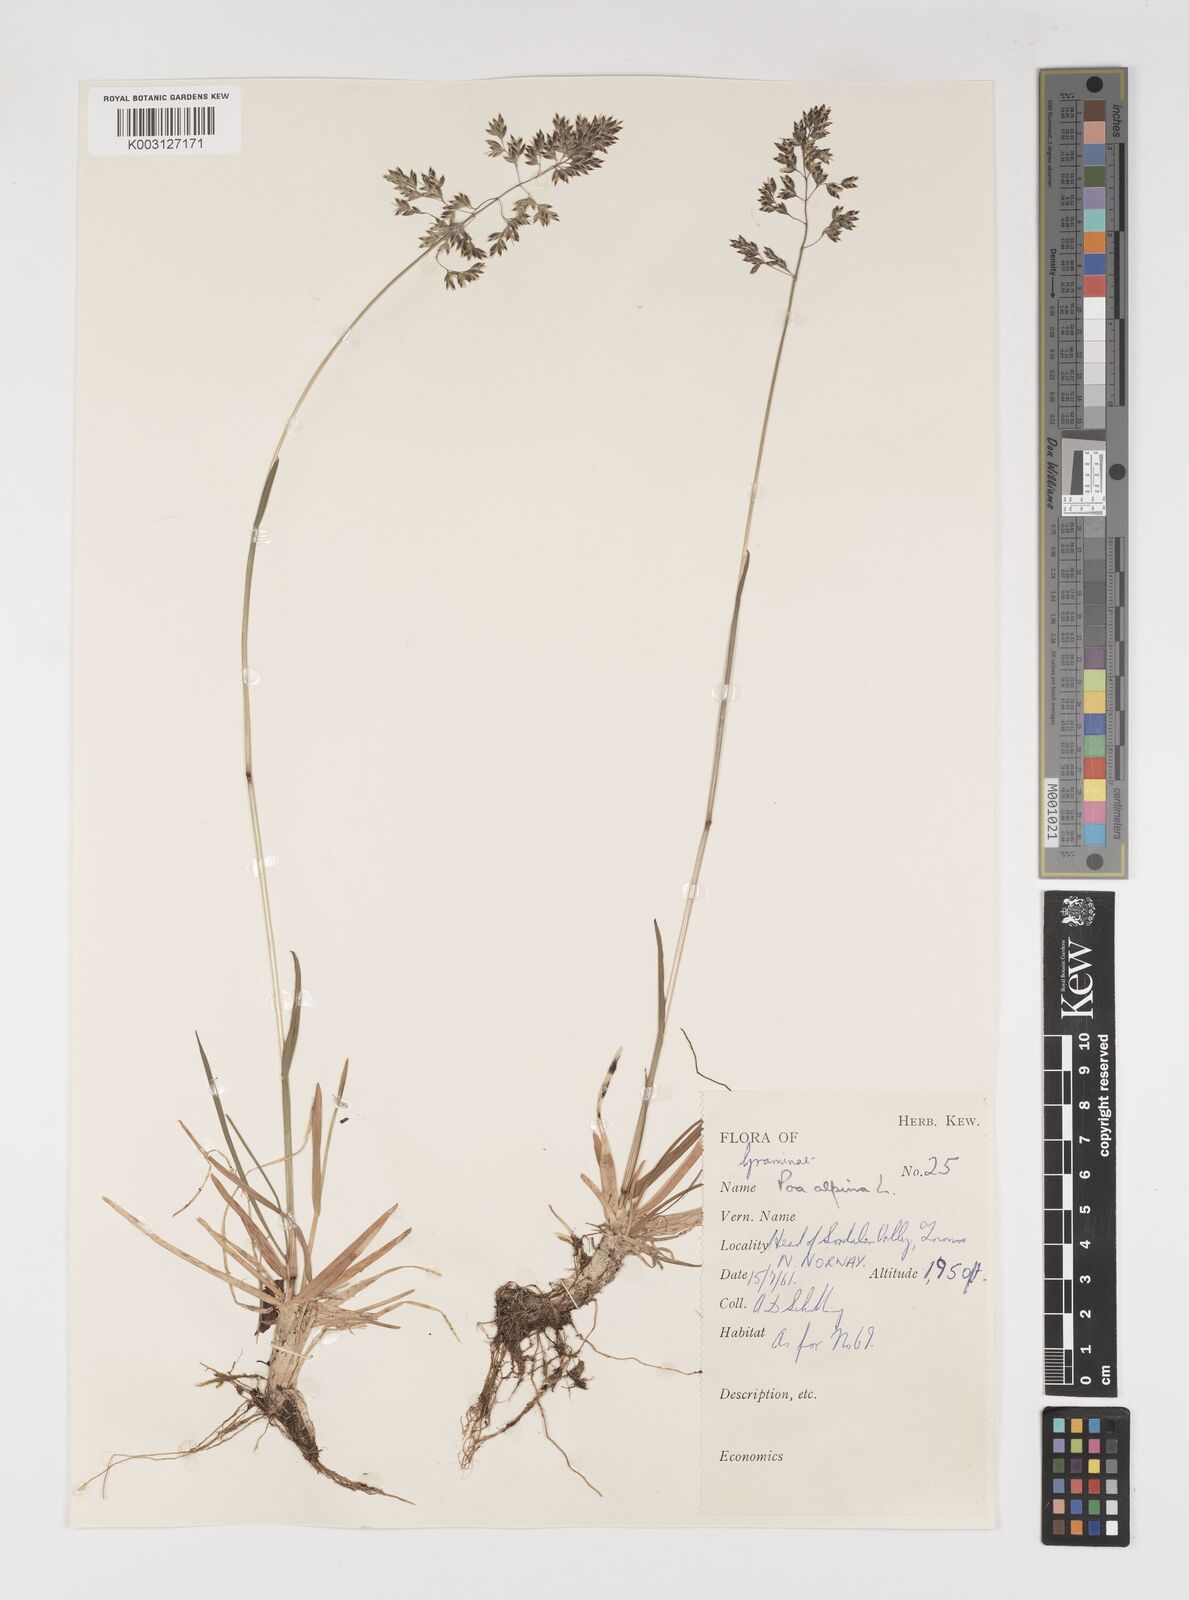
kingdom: Plantae
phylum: Tracheophyta
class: Liliopsida
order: Poales
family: Poaceae
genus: Poa
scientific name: Poa alpina
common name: Alpine bluegrass
